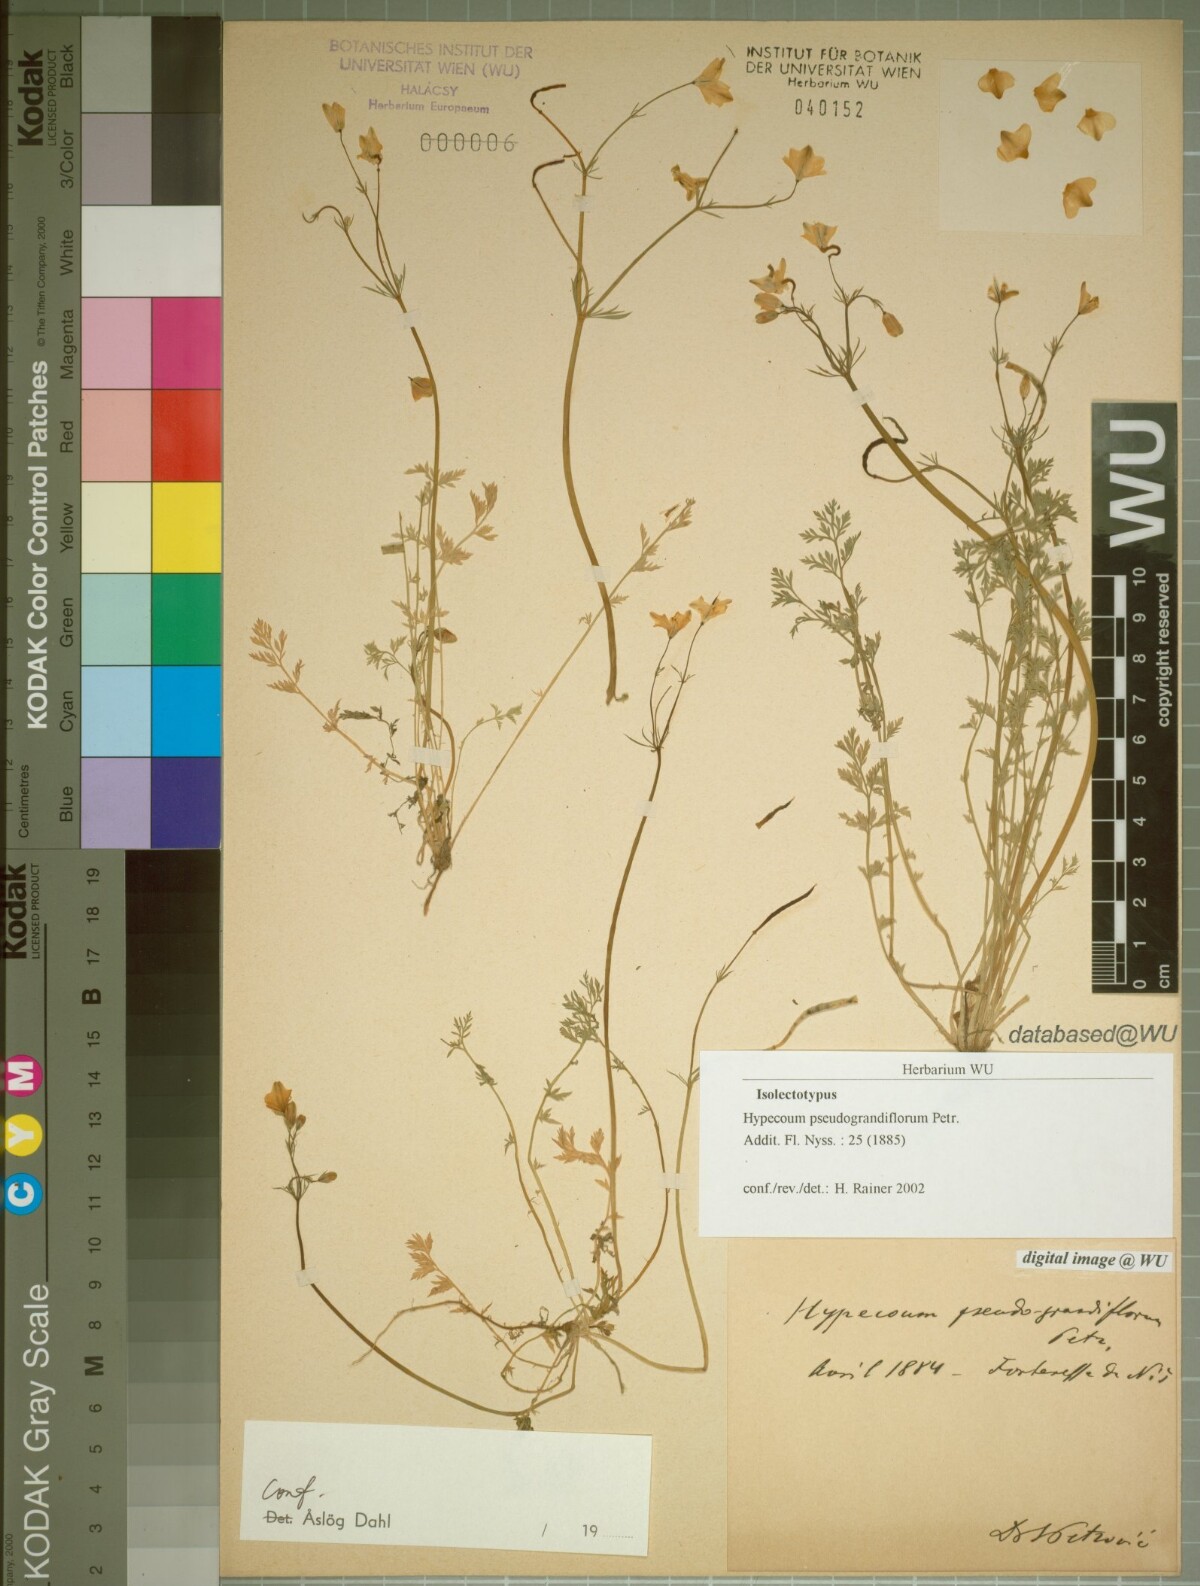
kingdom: Plantae
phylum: Tracheophyta
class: Magnoliopsida
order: Ranunculales
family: Papaveraceae
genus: Hypecoum
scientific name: Hypecoum pseudograndiflorum
